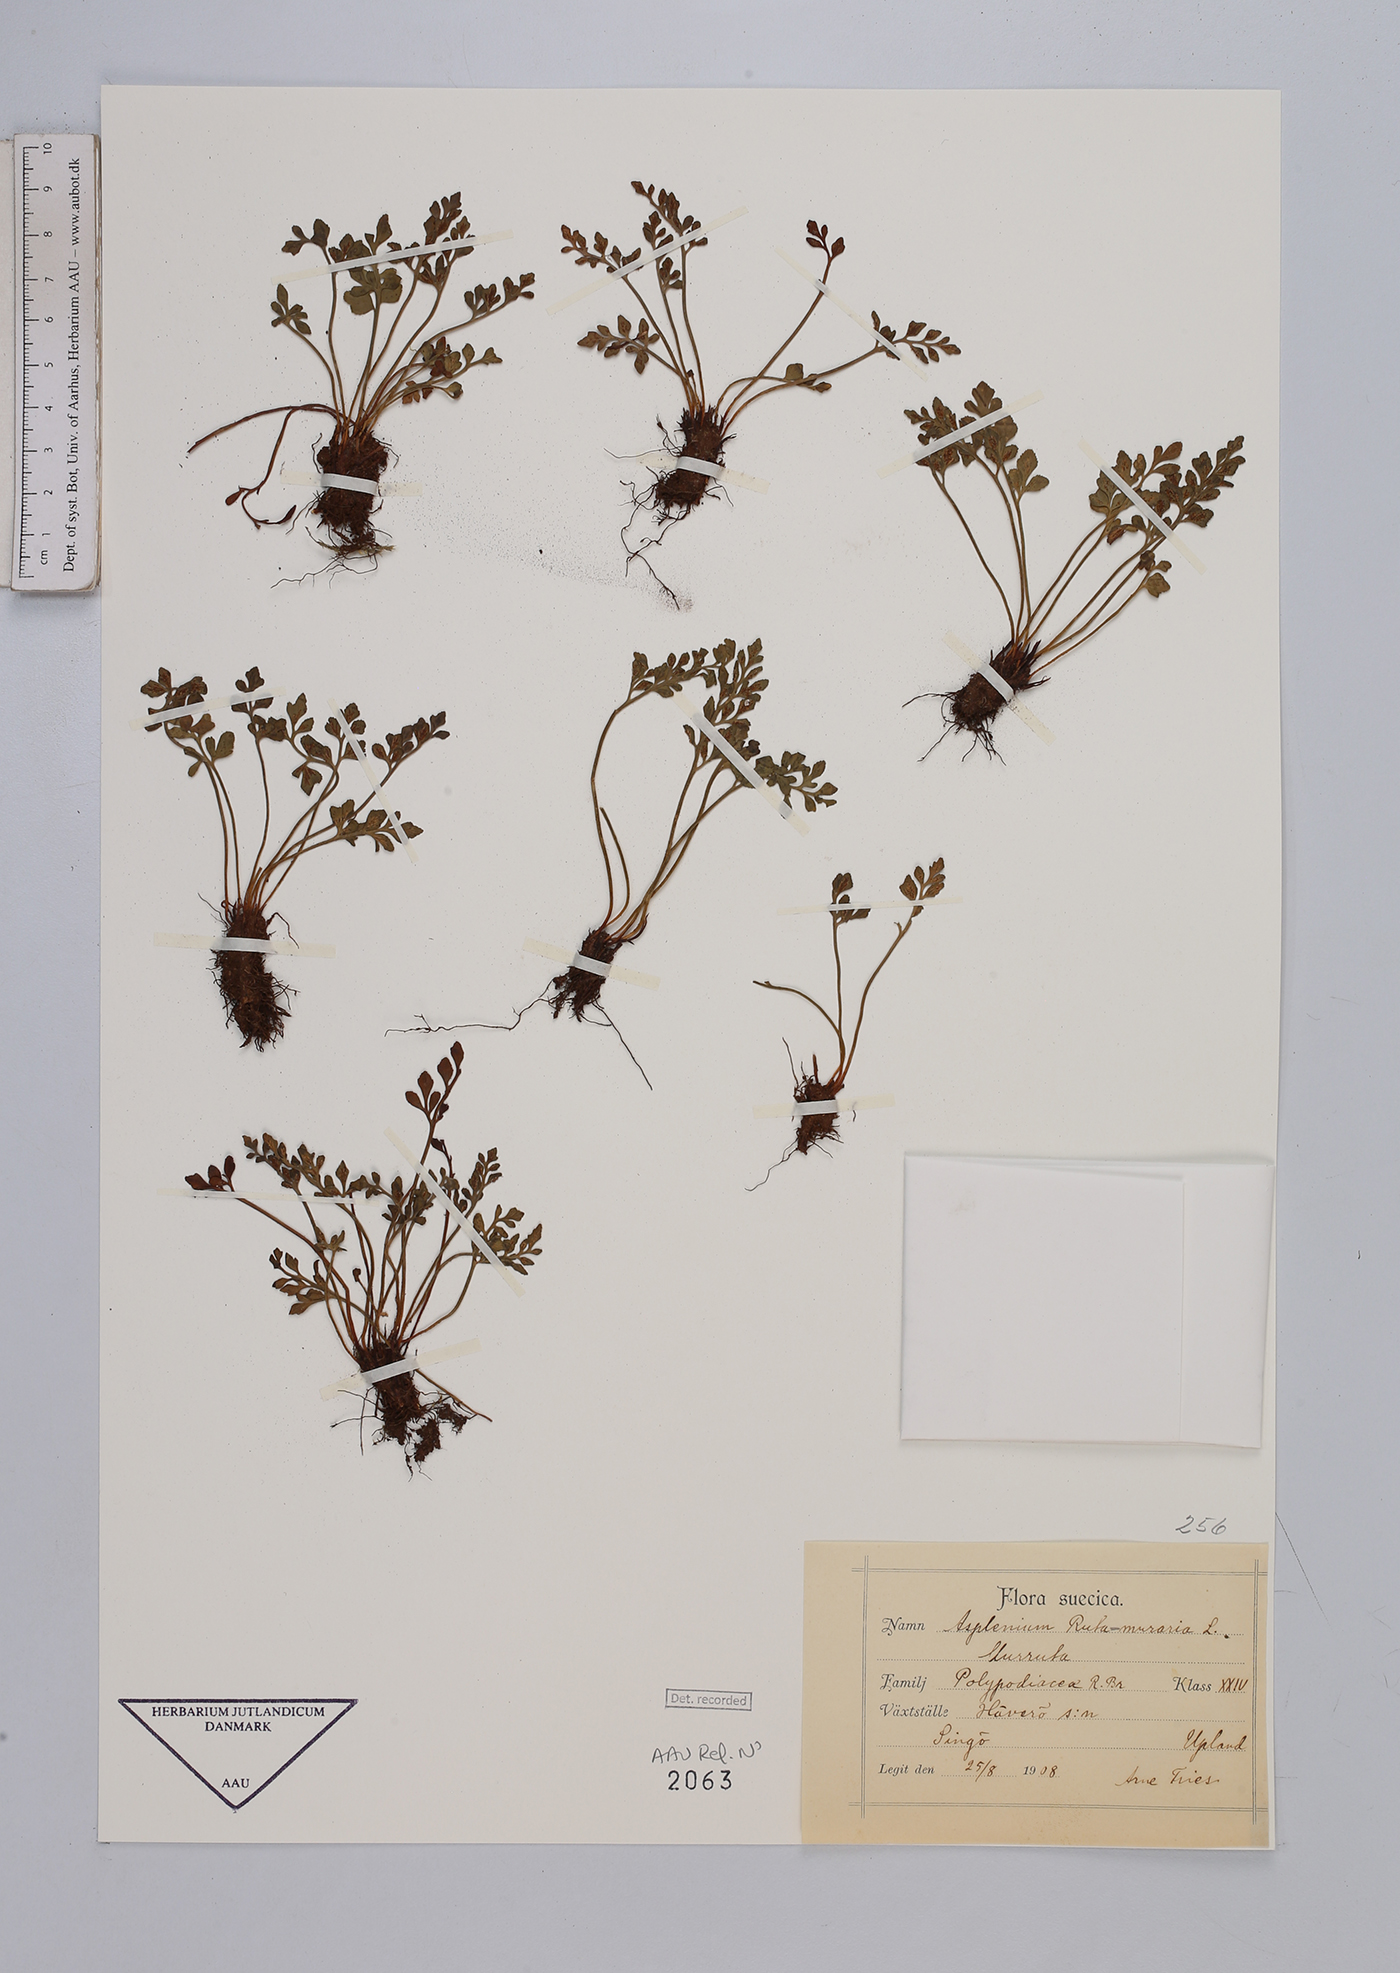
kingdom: Plantae
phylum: Tracheophyta
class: Polypodiopsida
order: Polypodiales
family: Aspleniaceae
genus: Asplenium
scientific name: Asplenium ruta-muraria
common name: Wall-rue
